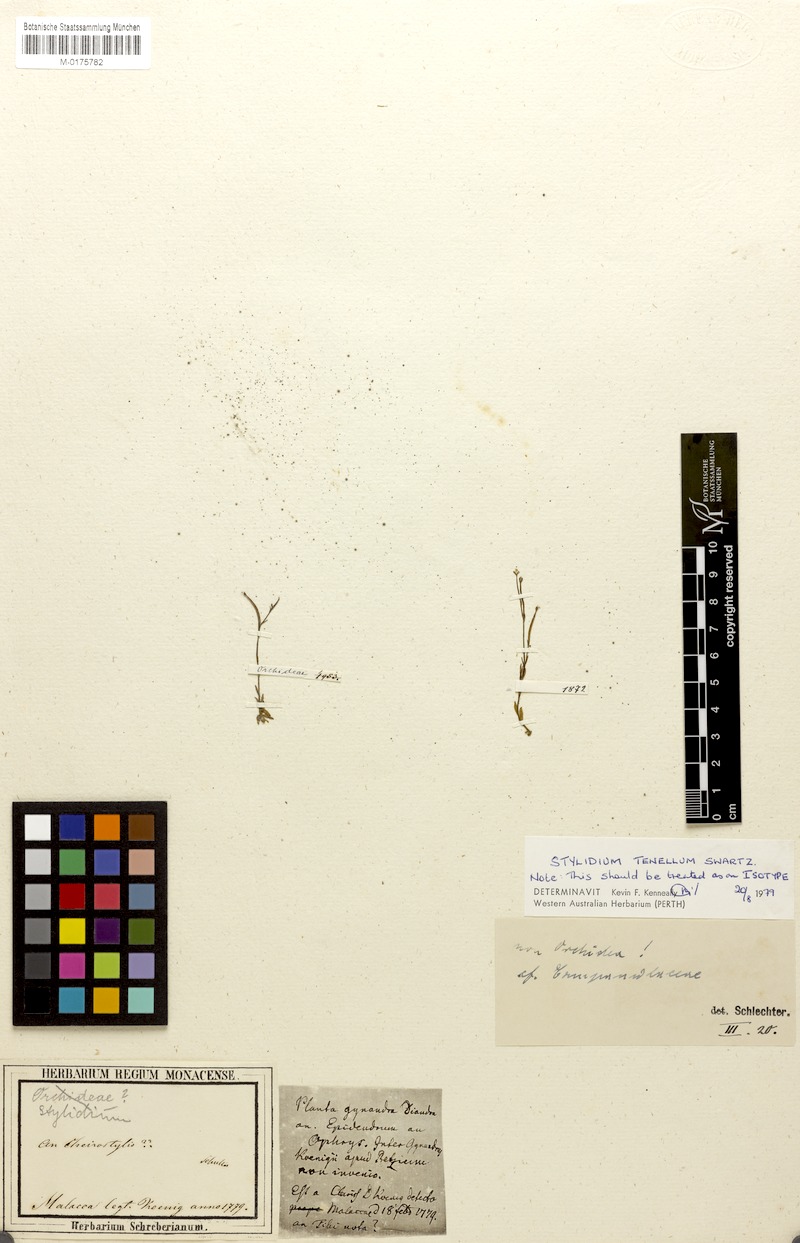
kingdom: Plantae
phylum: Tracheophyta
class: Magnoliopsida
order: Asterales
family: Stylidiaceae
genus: Stylidium
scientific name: Stylidium tenellum
